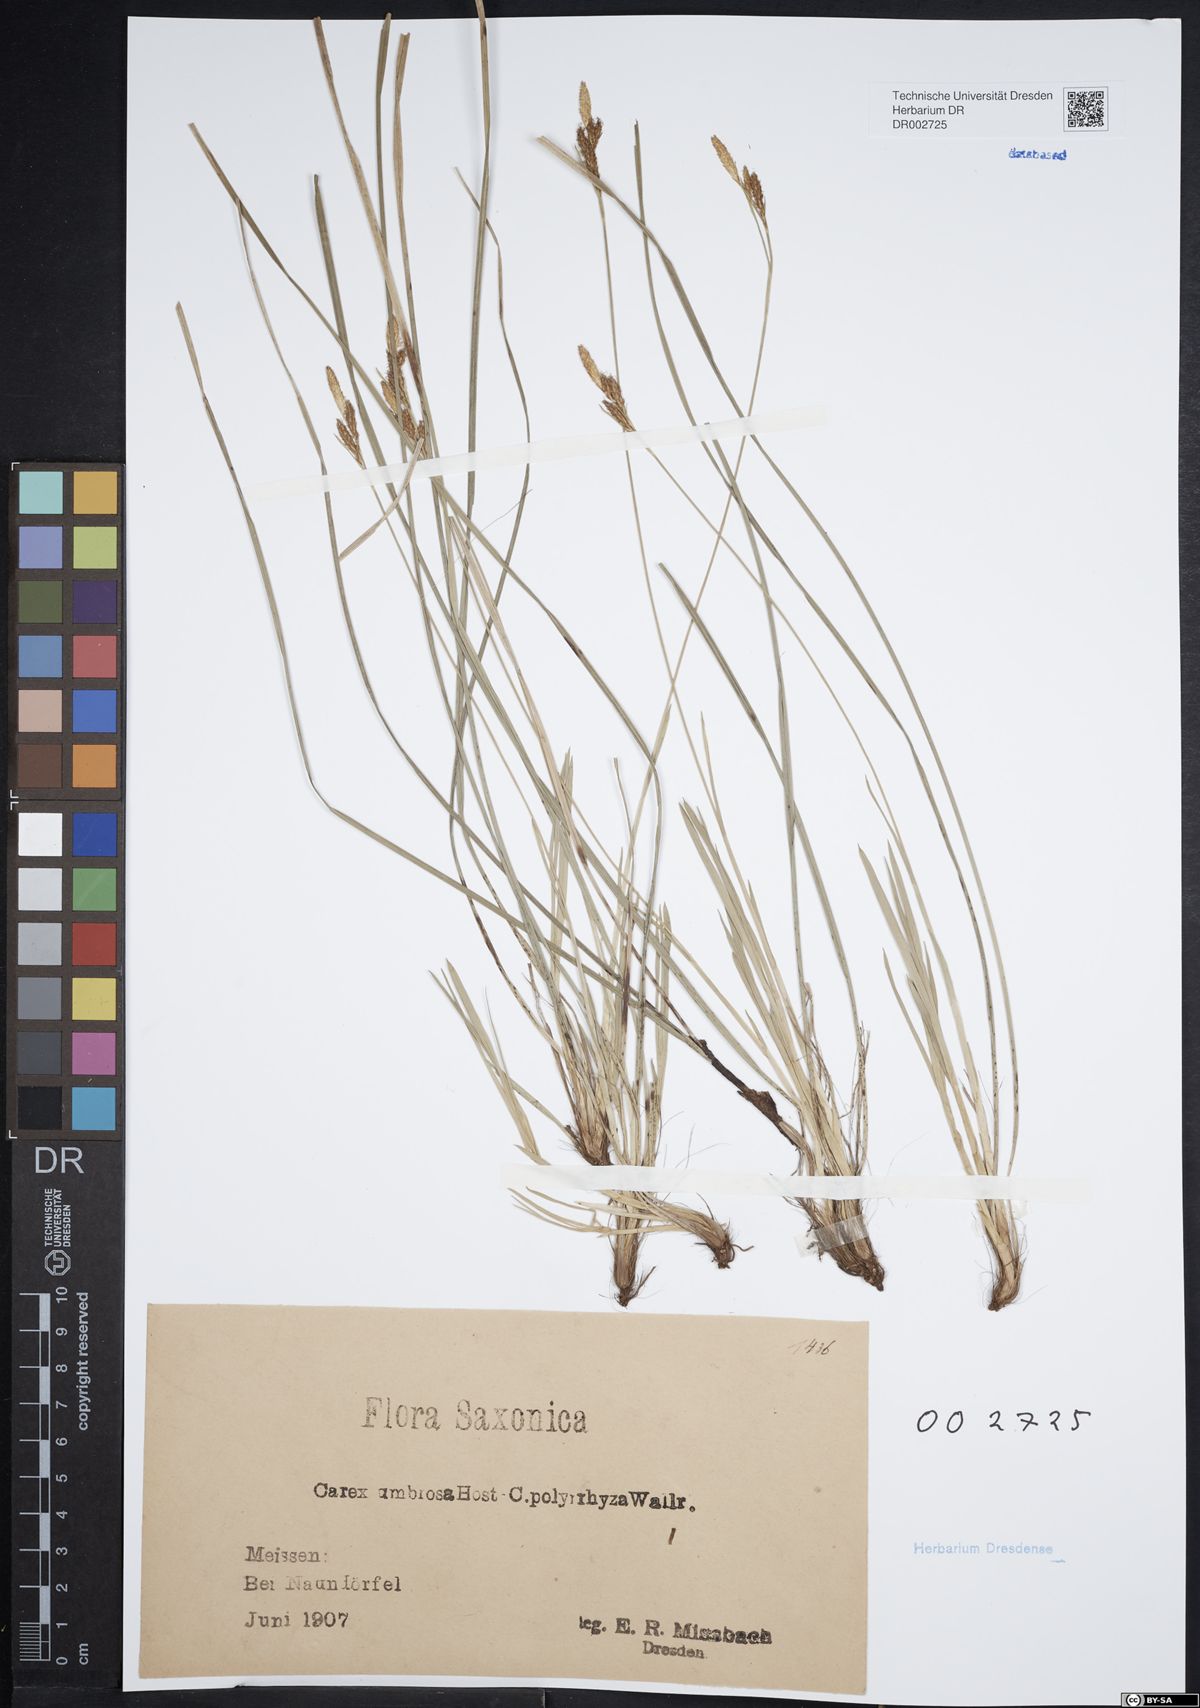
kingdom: Plantae
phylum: Tracheophyta
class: Liliopsida
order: Poales
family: Cyperaceae
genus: Carex
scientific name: Carex umbrosa
